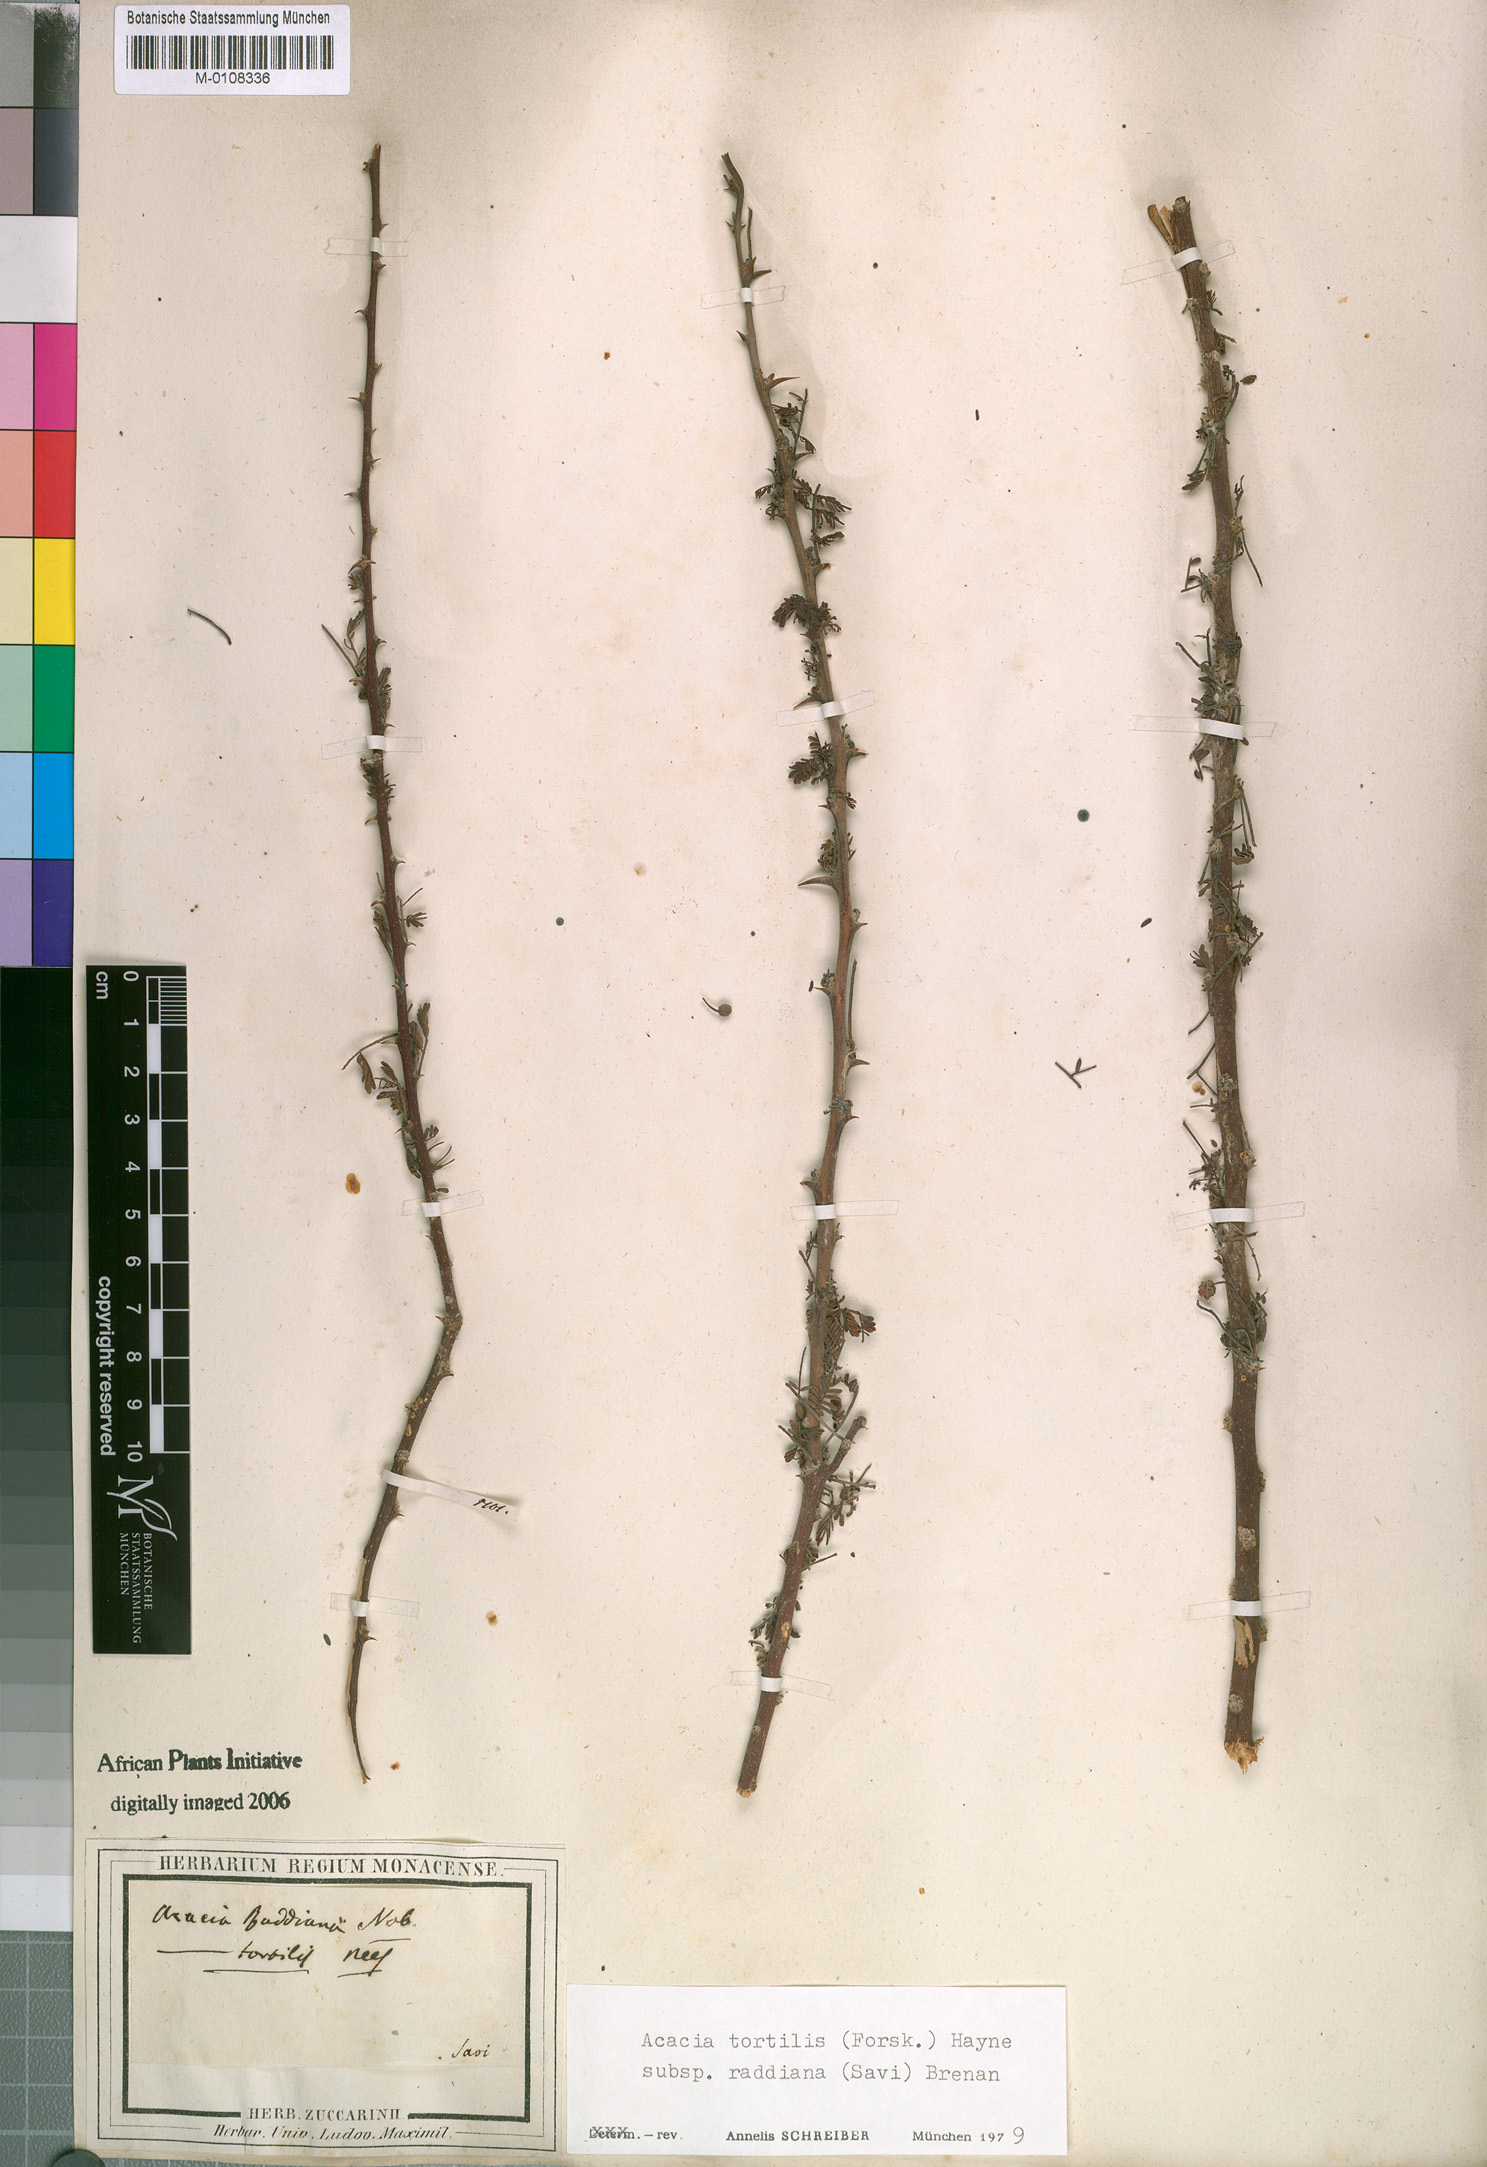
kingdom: Plantae
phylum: Tracheophyta
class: Magnoliopsida
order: Fabales
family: Fabaceae
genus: Vachellia
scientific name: Vachellia tortilis
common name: Umbrella thorn acacia
